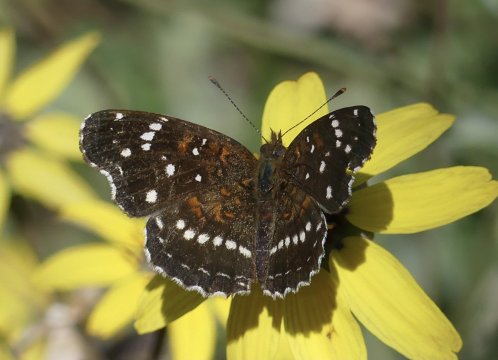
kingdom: Animalia
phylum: Arthropoda
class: Insecta
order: Lepidoptera
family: Nymphalidae
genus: Anthanassa
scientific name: Anthanassa texana
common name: Texan Crescent
